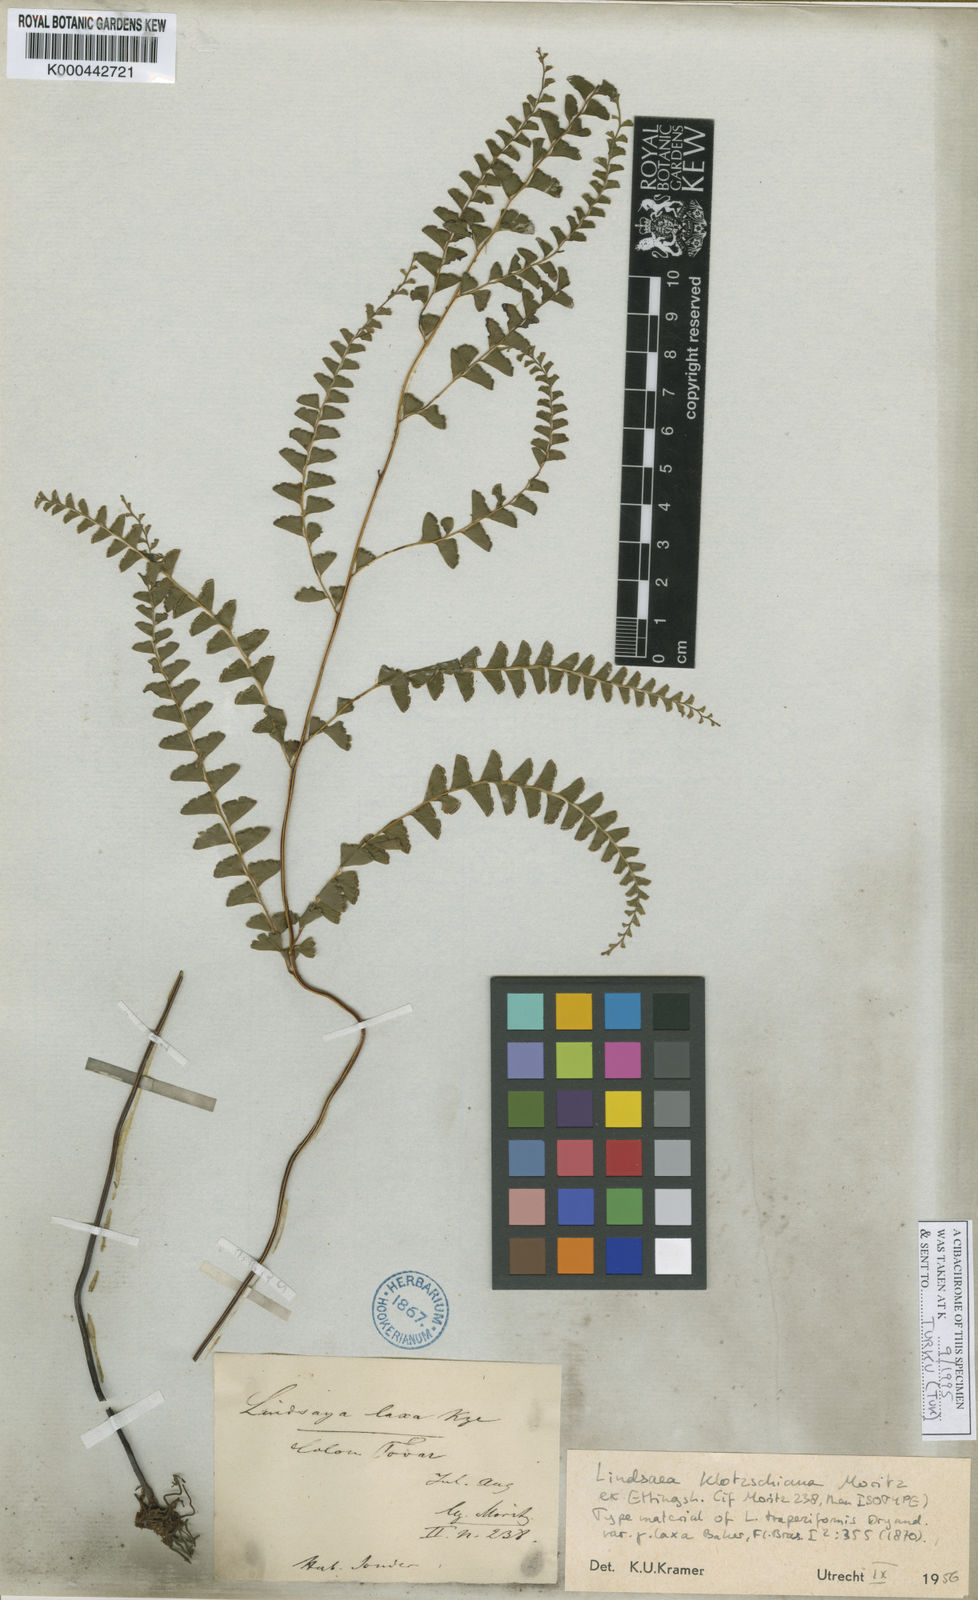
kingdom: Plantae
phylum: Tracheophyta
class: Polypodiopsida
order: Polypodiales
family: Lindsaeaceae
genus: Lindsaea
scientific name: Lindsaea feei
